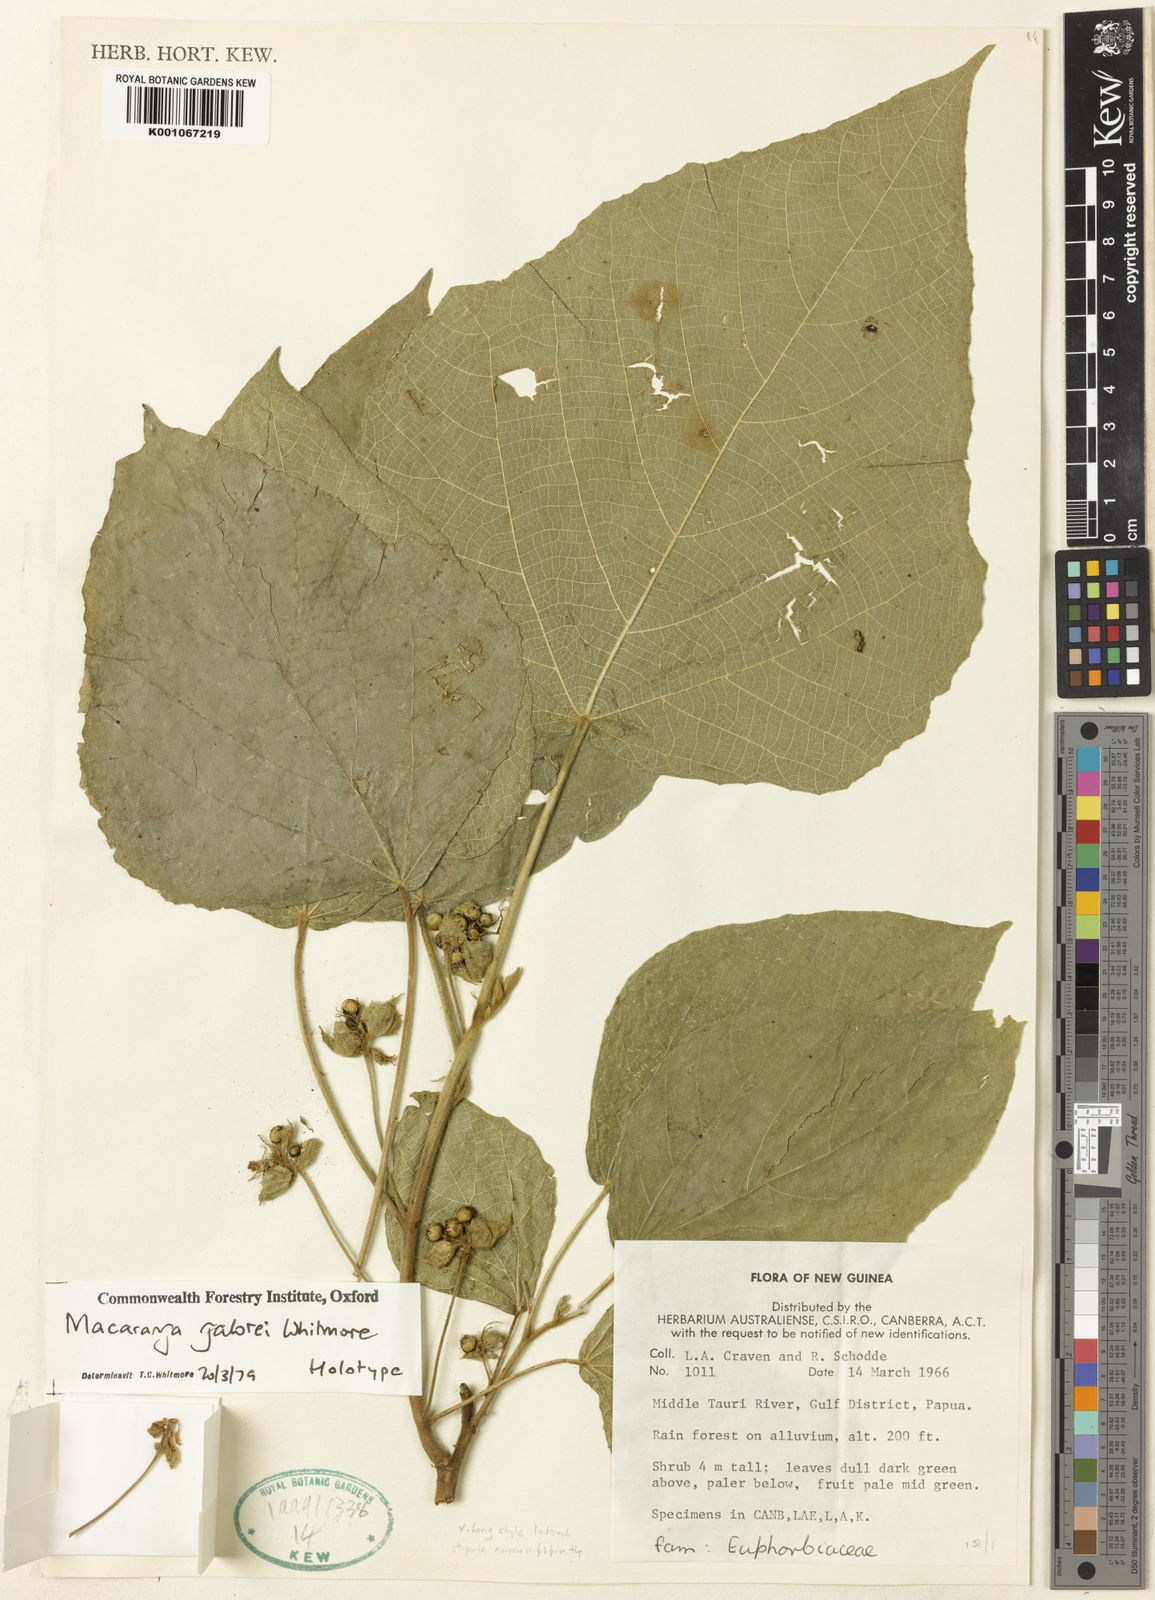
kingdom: Plantae
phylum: Tracheophyta
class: Magnoliopsida
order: Malpighiales
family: Euphorbiaceae
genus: Macaranga
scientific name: Macaranga galorei
